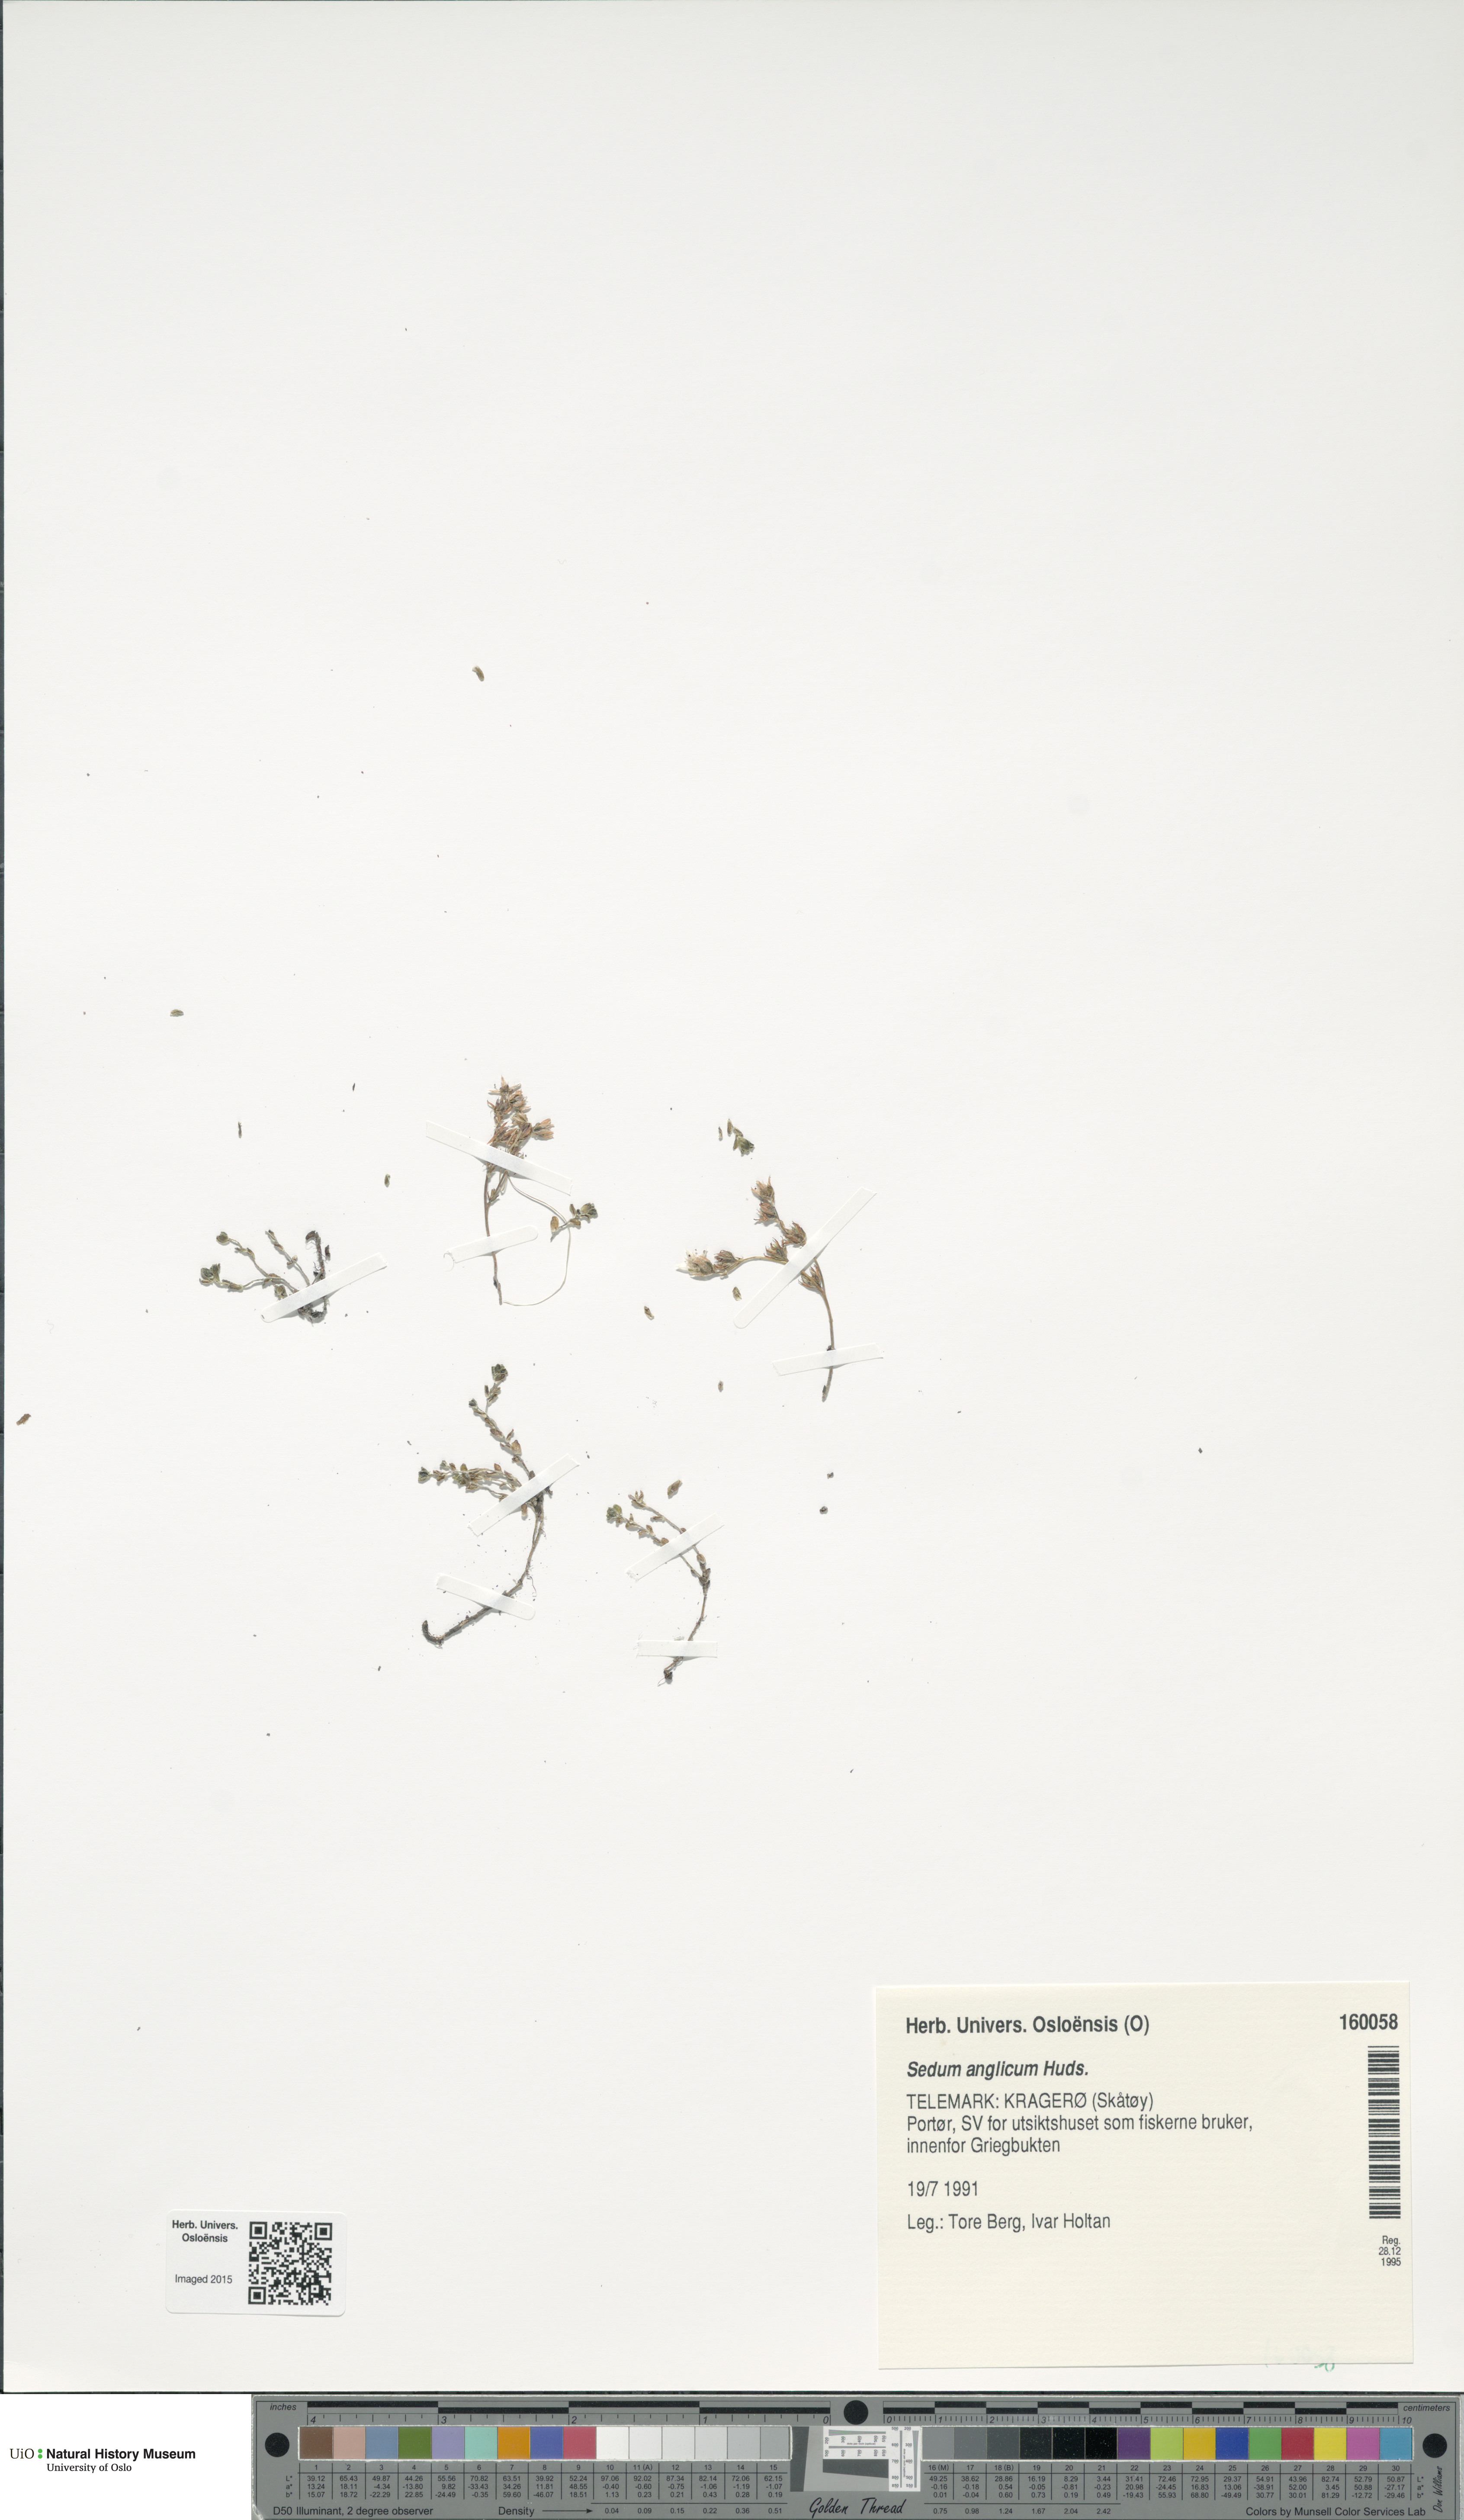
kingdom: Plantae
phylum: Tracheophyta
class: Magnoliopsida
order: Saxifragales
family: Crassulaceae
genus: Sedum
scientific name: Sedum anglicum
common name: English stonecrop
